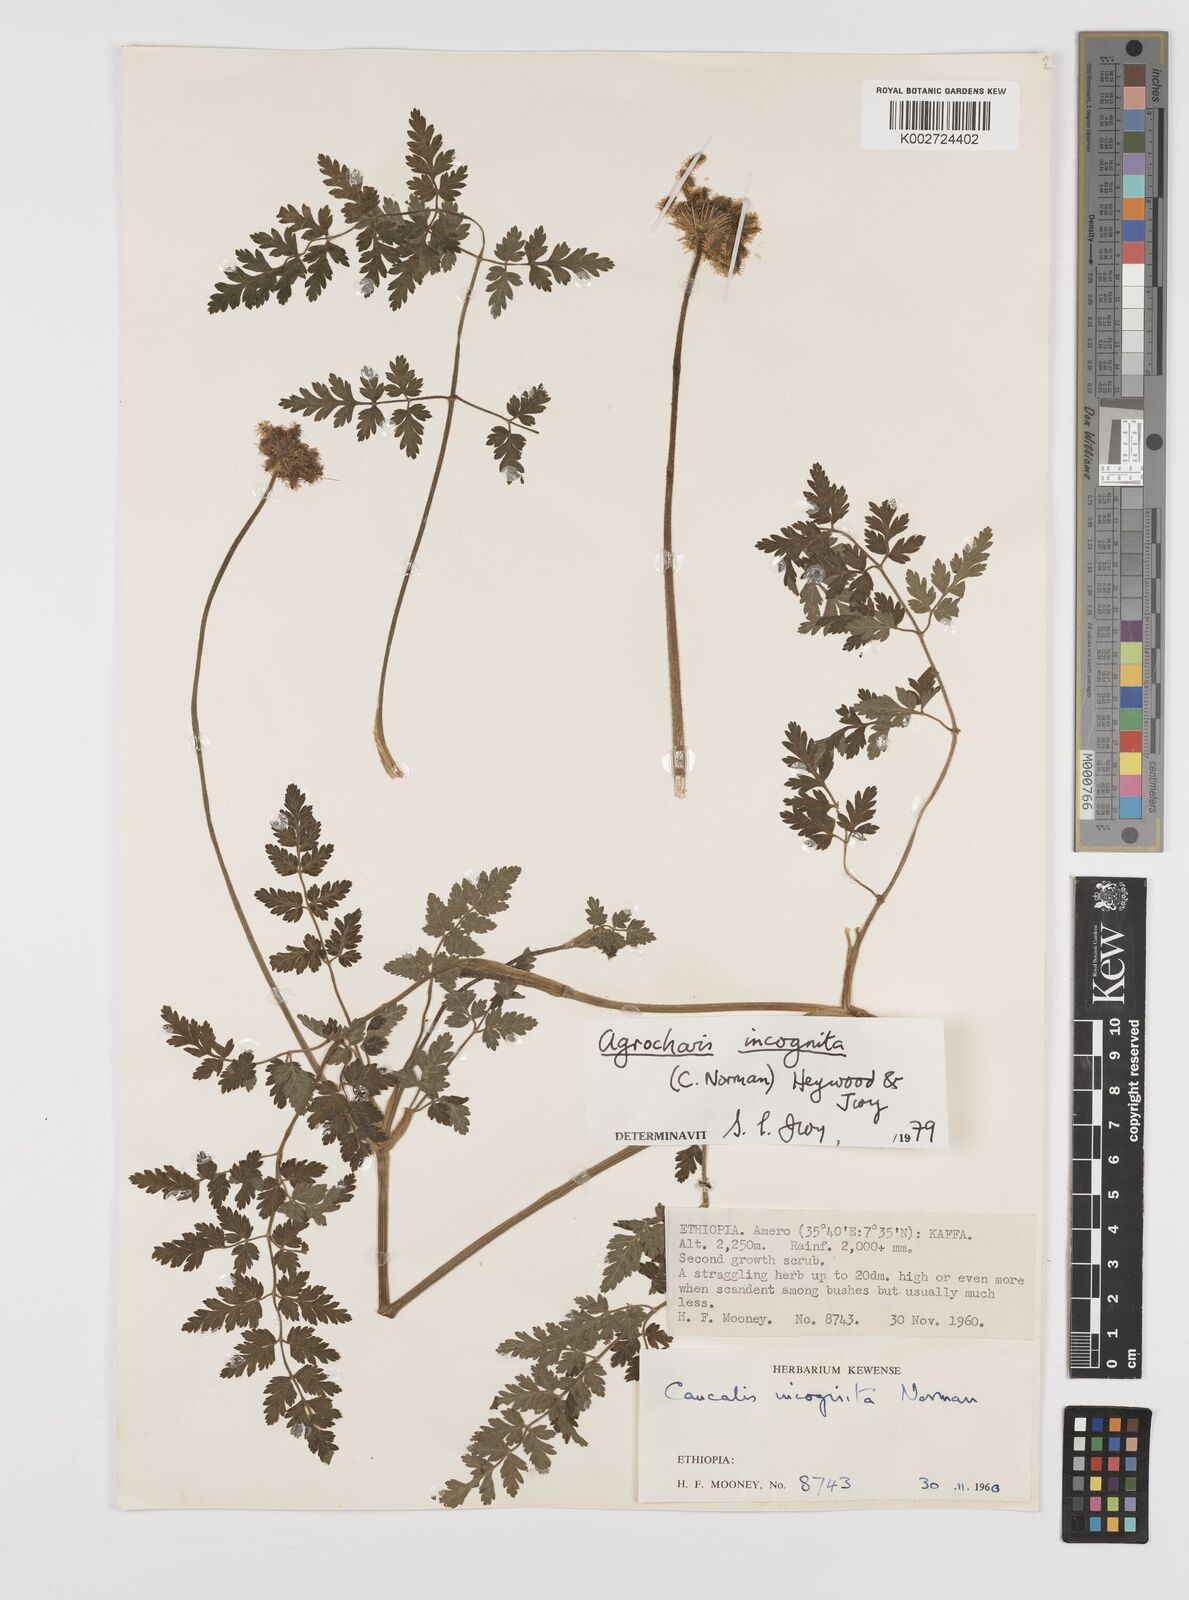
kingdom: Plantae
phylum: Tracheophyta
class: Magnoliopsida
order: Apiales
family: Apiaceae
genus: Daucus
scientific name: Daucus incognitus
